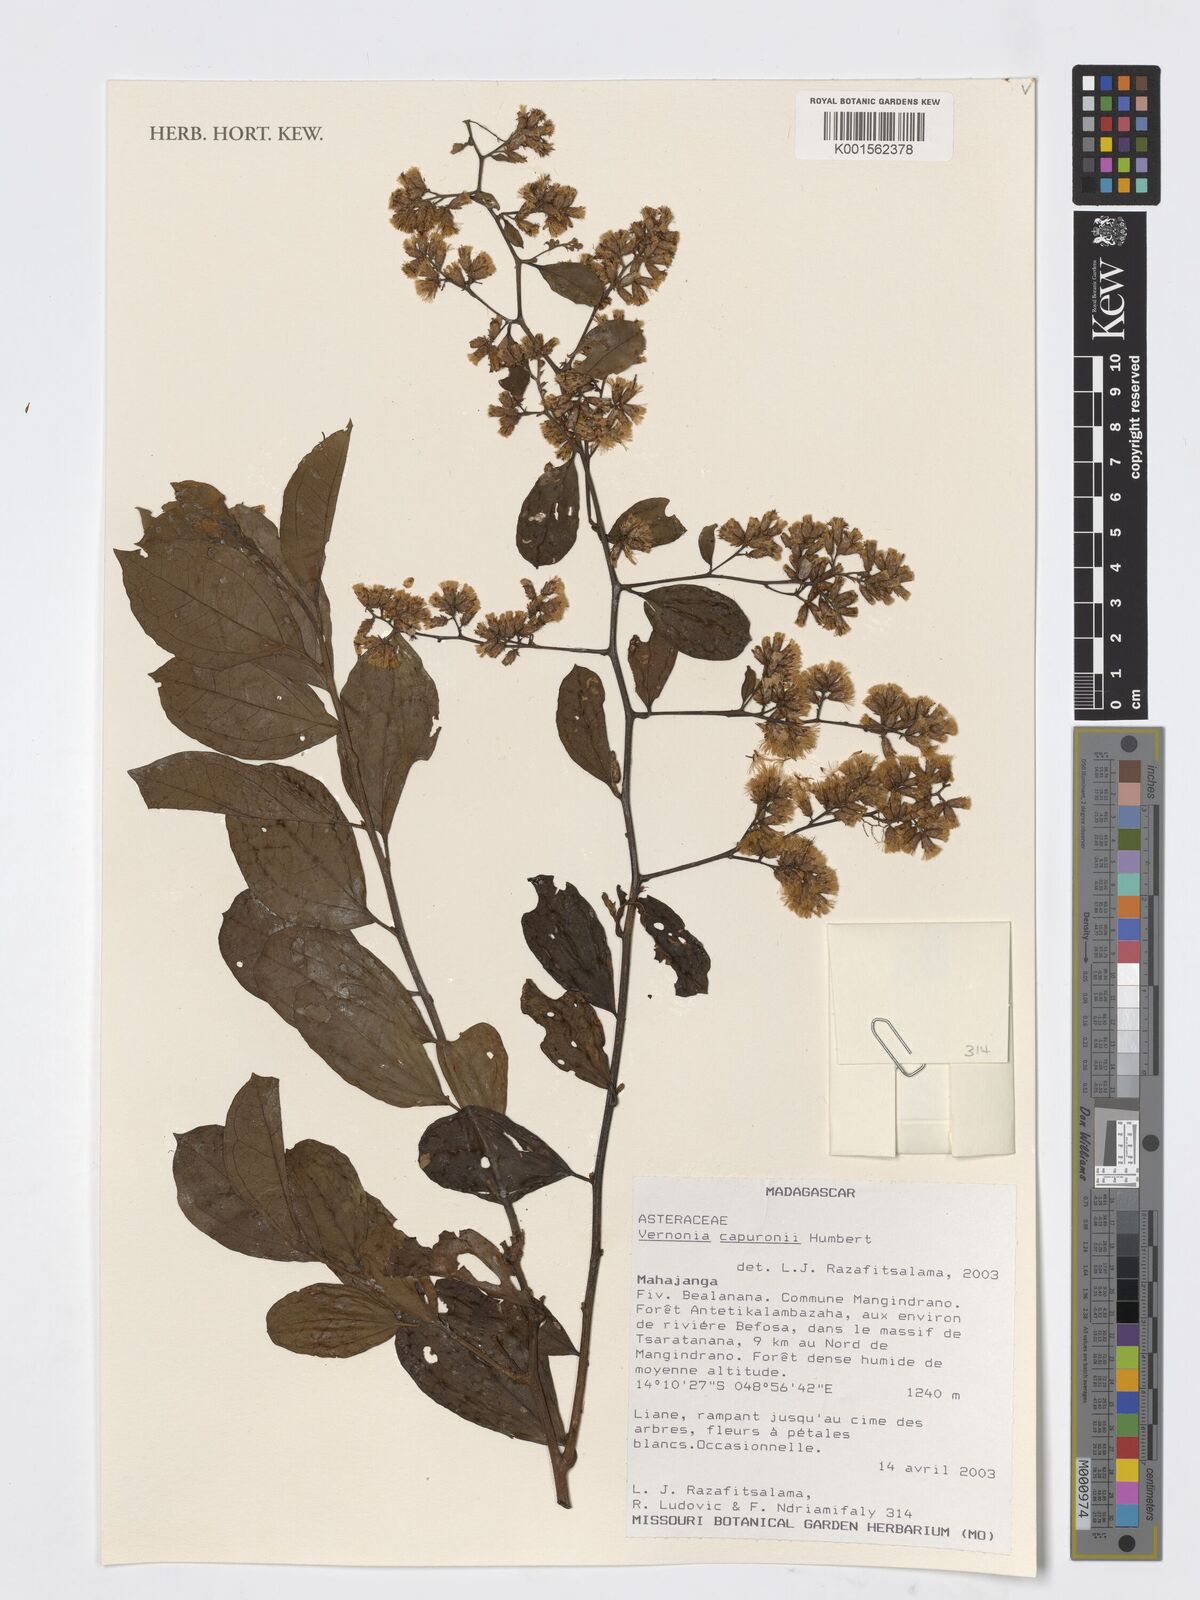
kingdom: Plantae
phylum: Tracheophyta
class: Magnoliopsida
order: Asterales
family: Asteraceae
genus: Distephanus
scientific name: Distephanus capuronii
